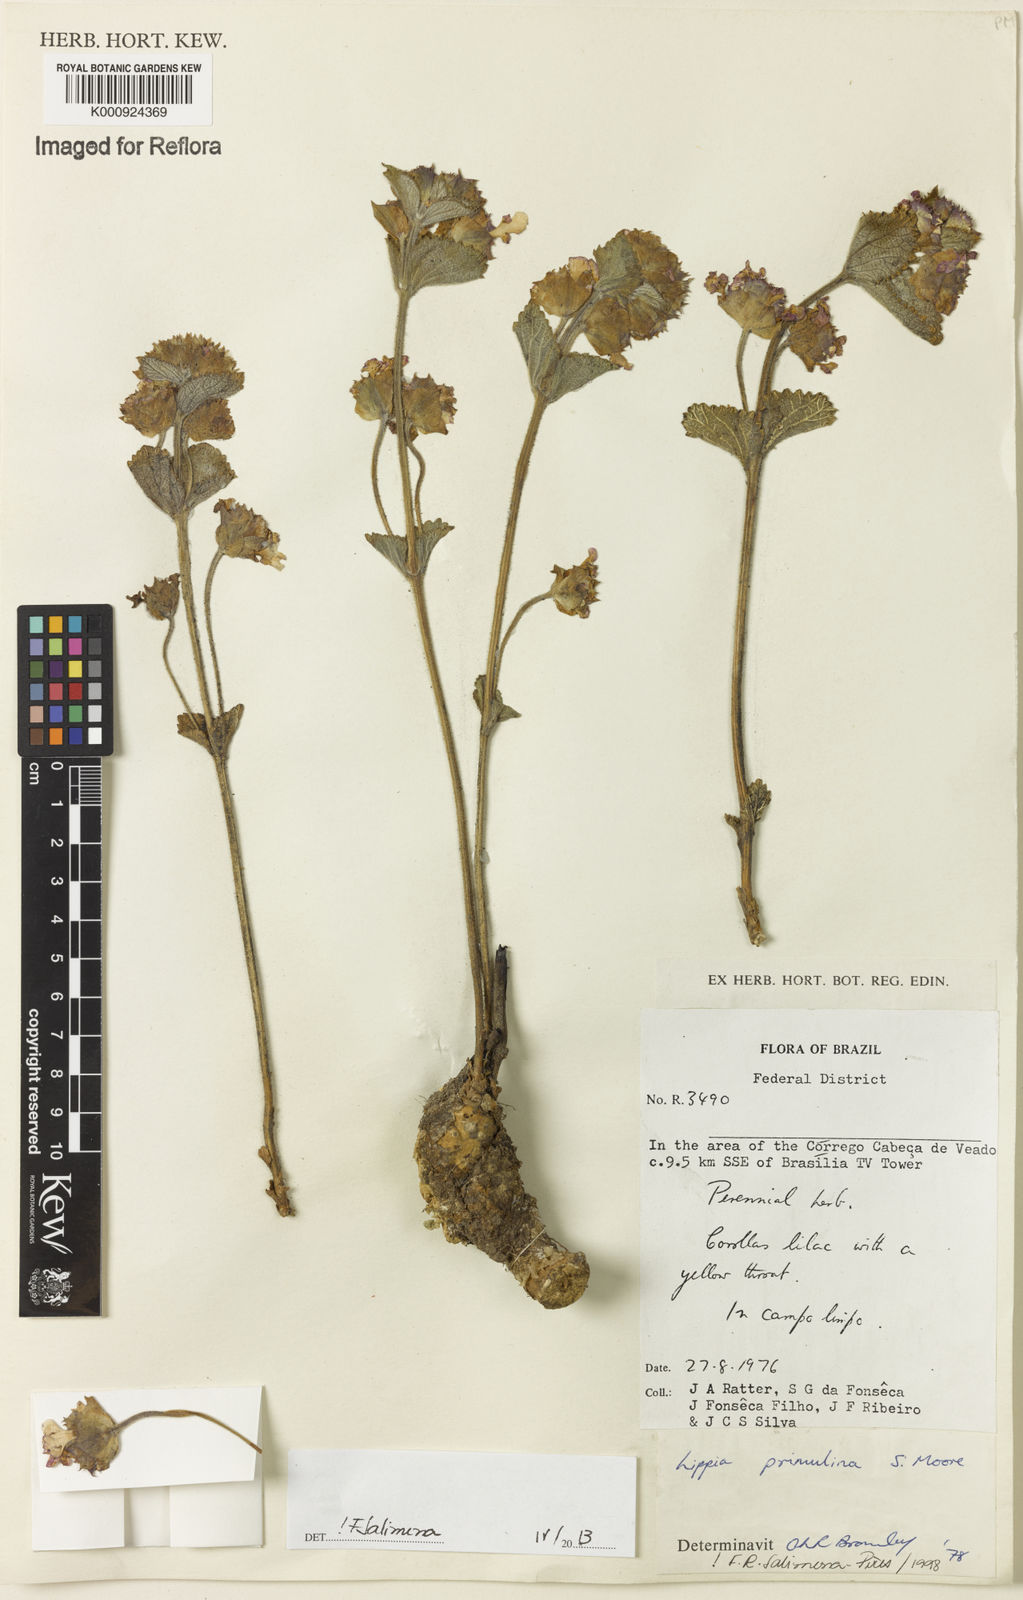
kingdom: Plantae
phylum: Tracheophyta
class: Magnoliopsida
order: Lamiales
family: Verbenaceae
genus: Lippia
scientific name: Lippia primulina
